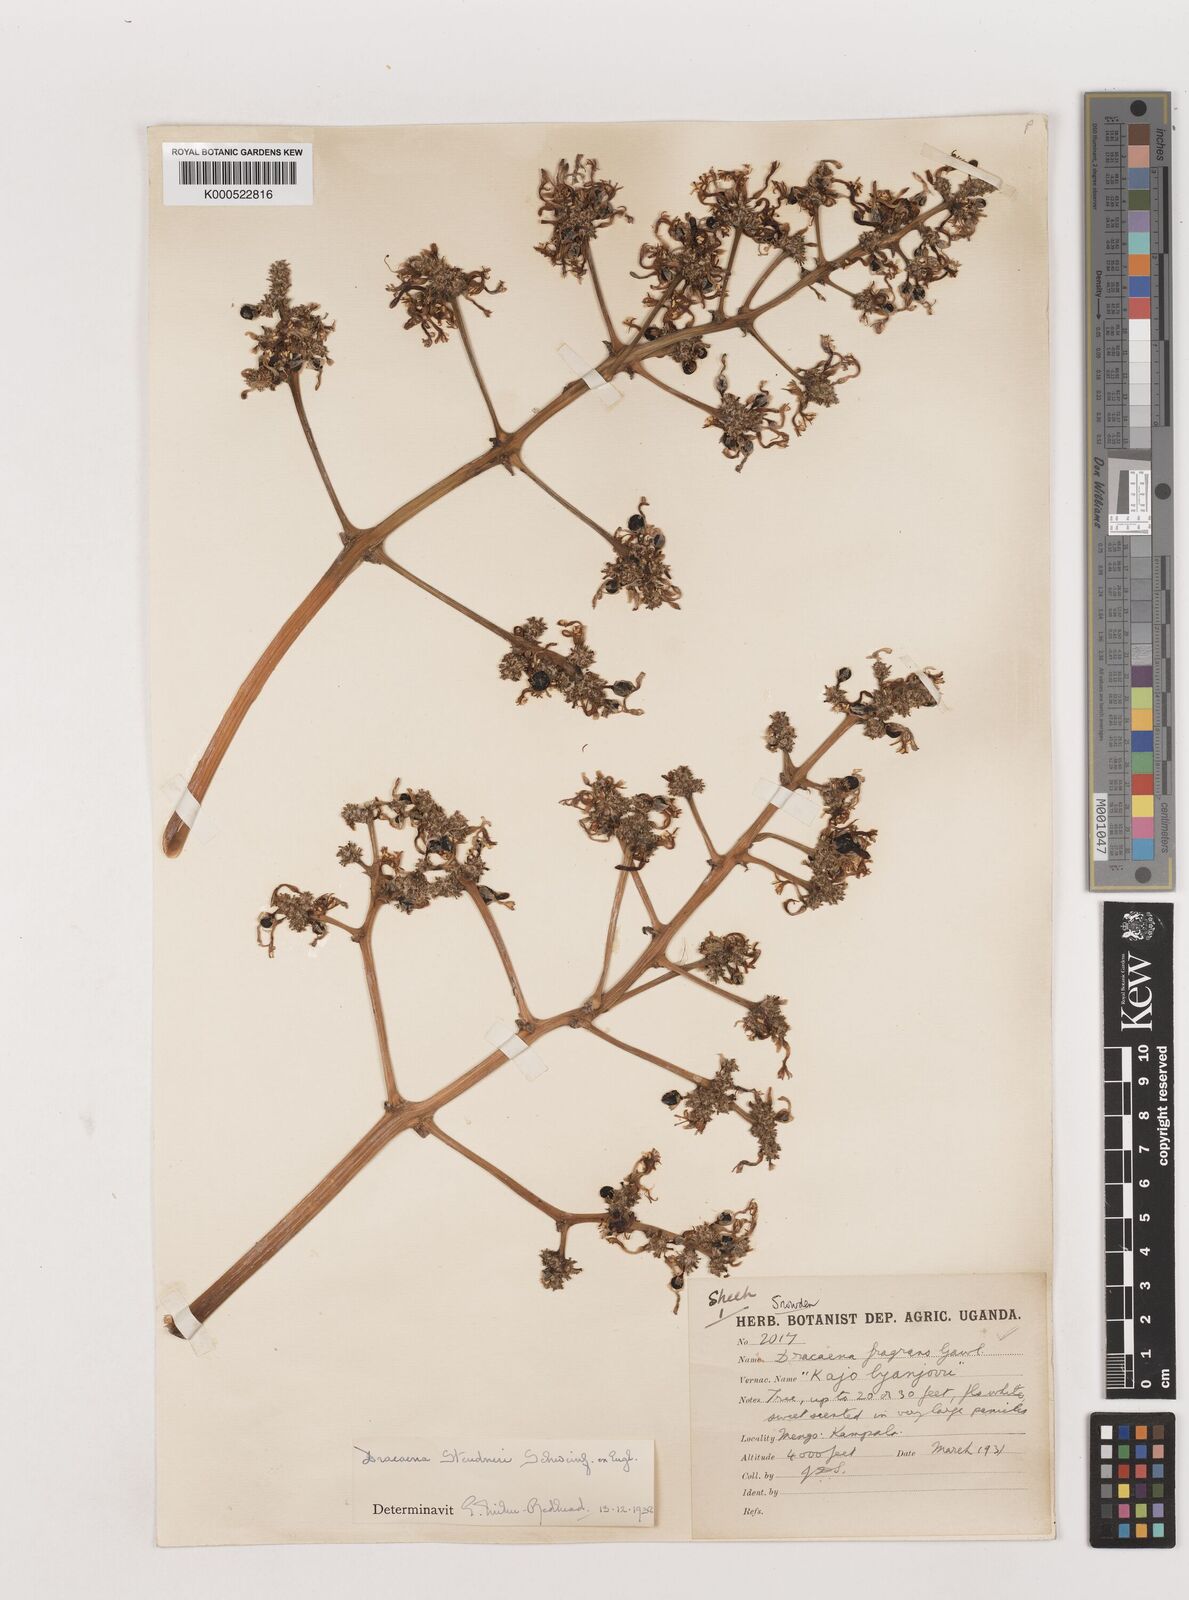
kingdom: Plantae
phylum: Tracheophyta
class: Liliopsida
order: Asparagales
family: Asparagaceae
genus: Dracaena
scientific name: Dracaena steudneri
